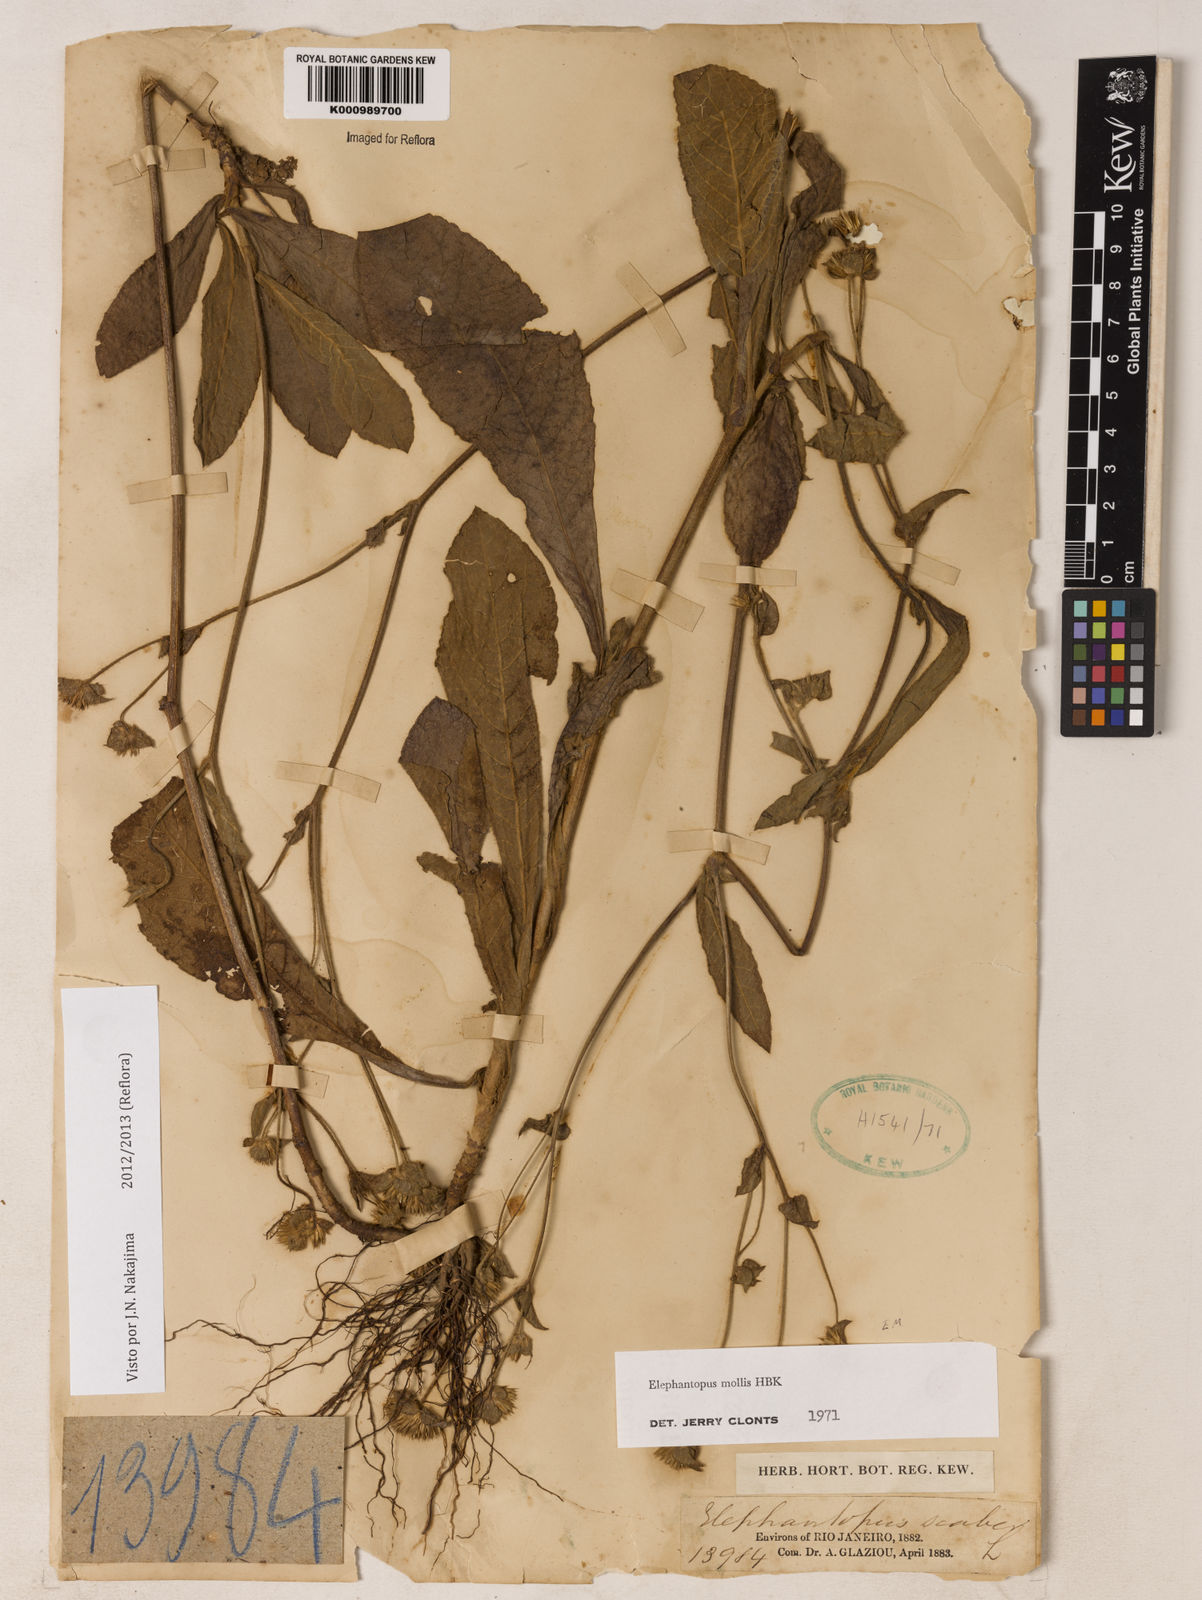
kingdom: Plantae
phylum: Tracheophyta
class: Magnoliopsida
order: Asterales
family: Asteraceae
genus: Elephantopus
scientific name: Elephantopus mollis
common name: Soft elephantsfoot
